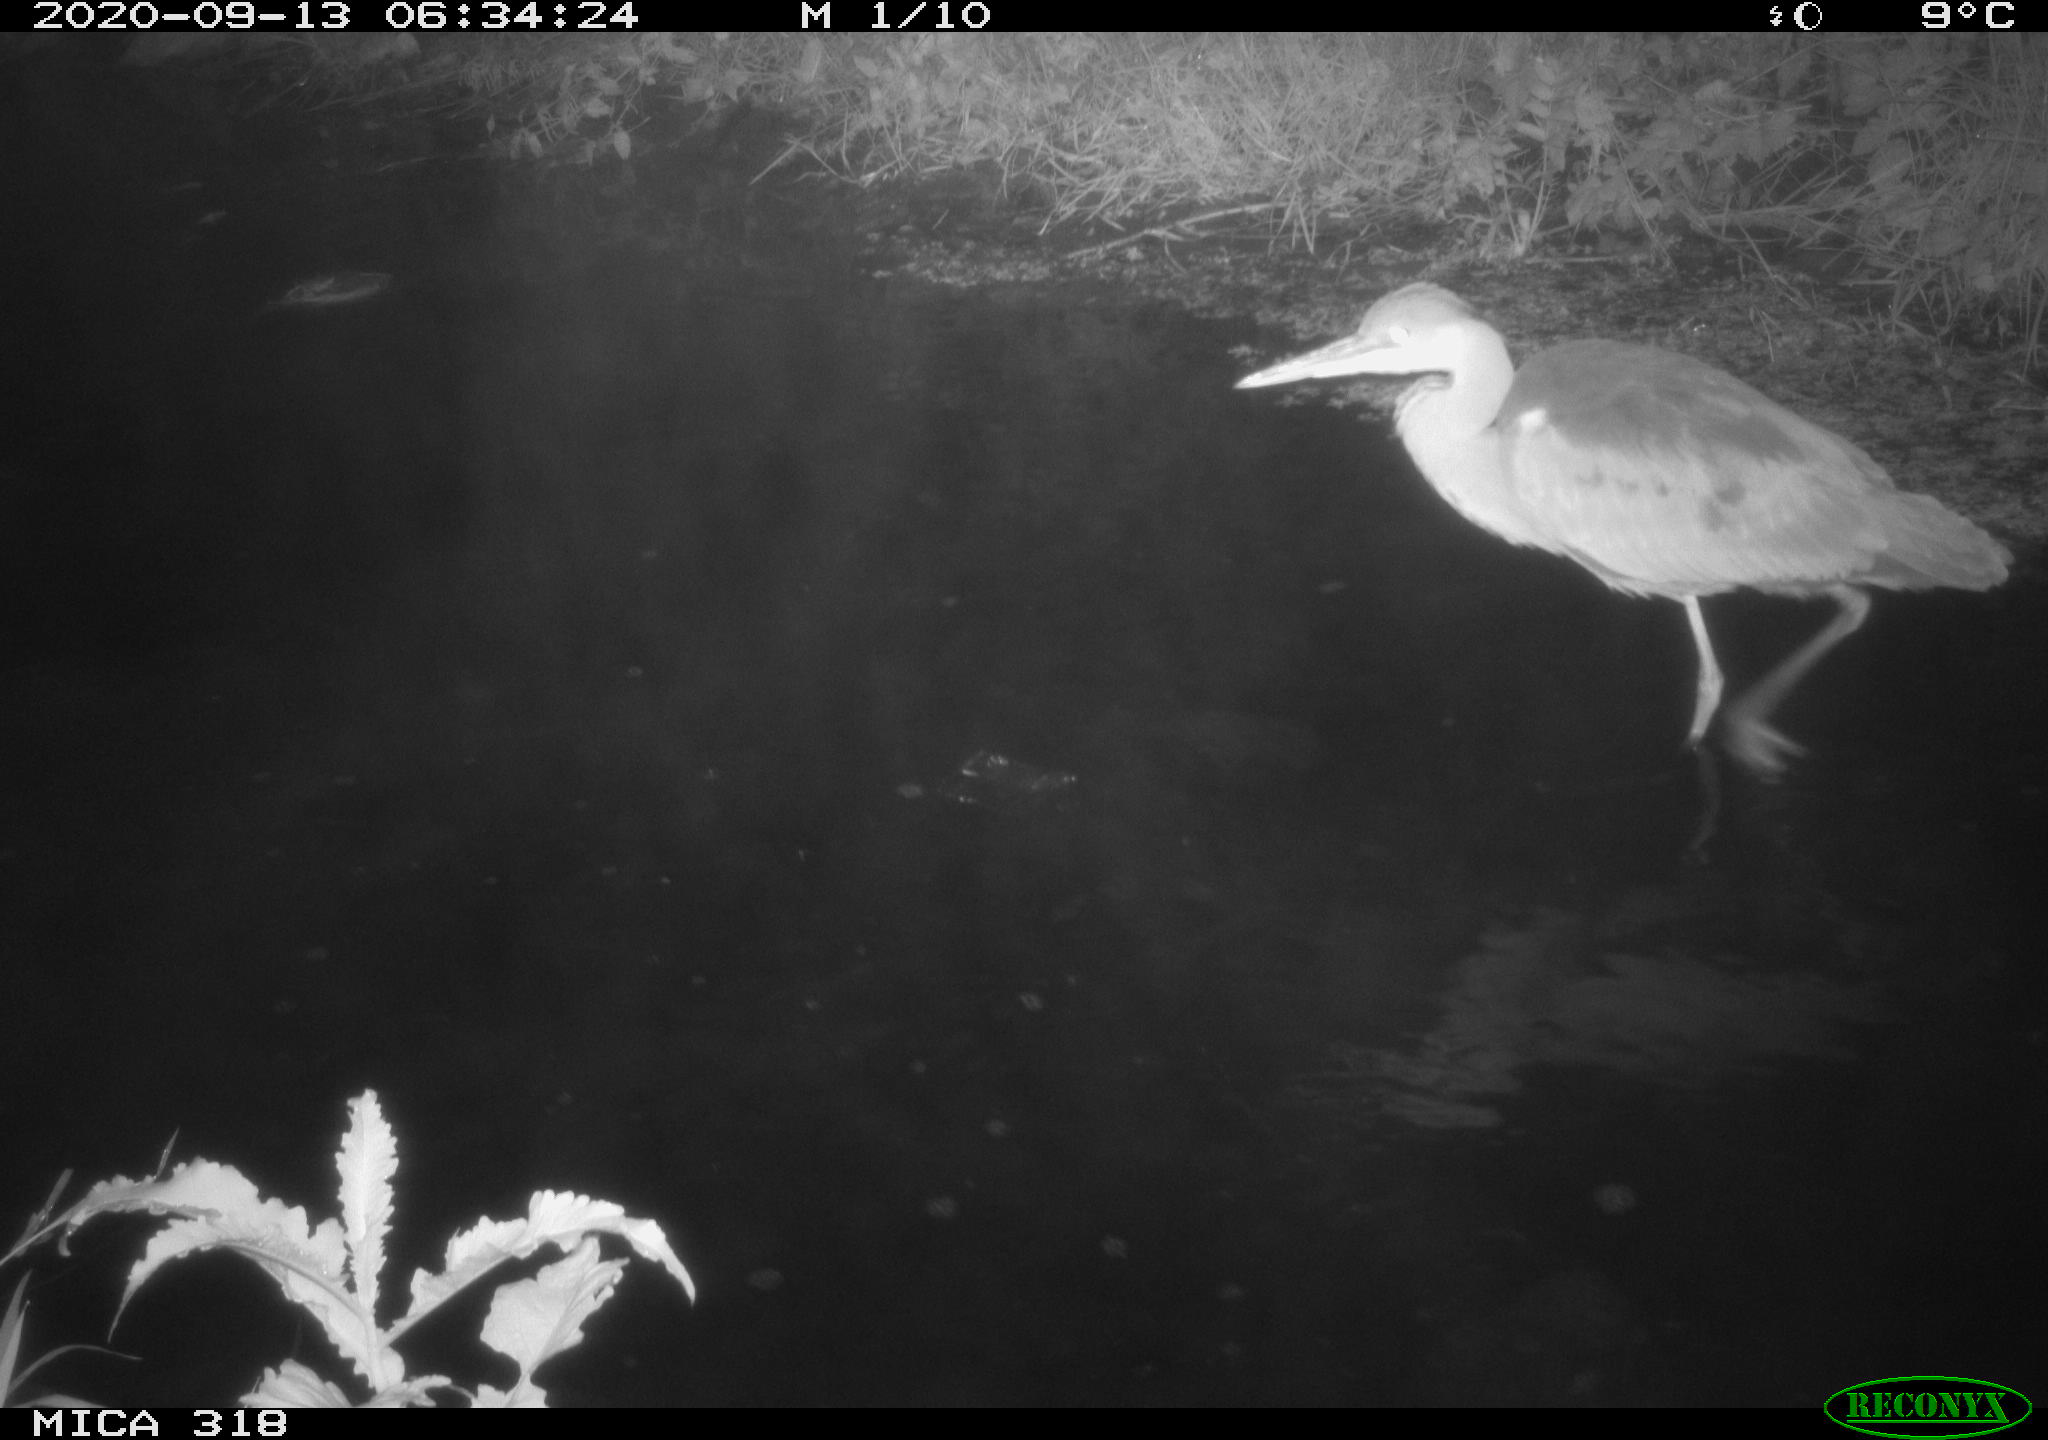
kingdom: Animalia
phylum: Chordata
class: Aves
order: Pelecaniformes
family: Ardeidae
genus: Ardea
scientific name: Ardea
